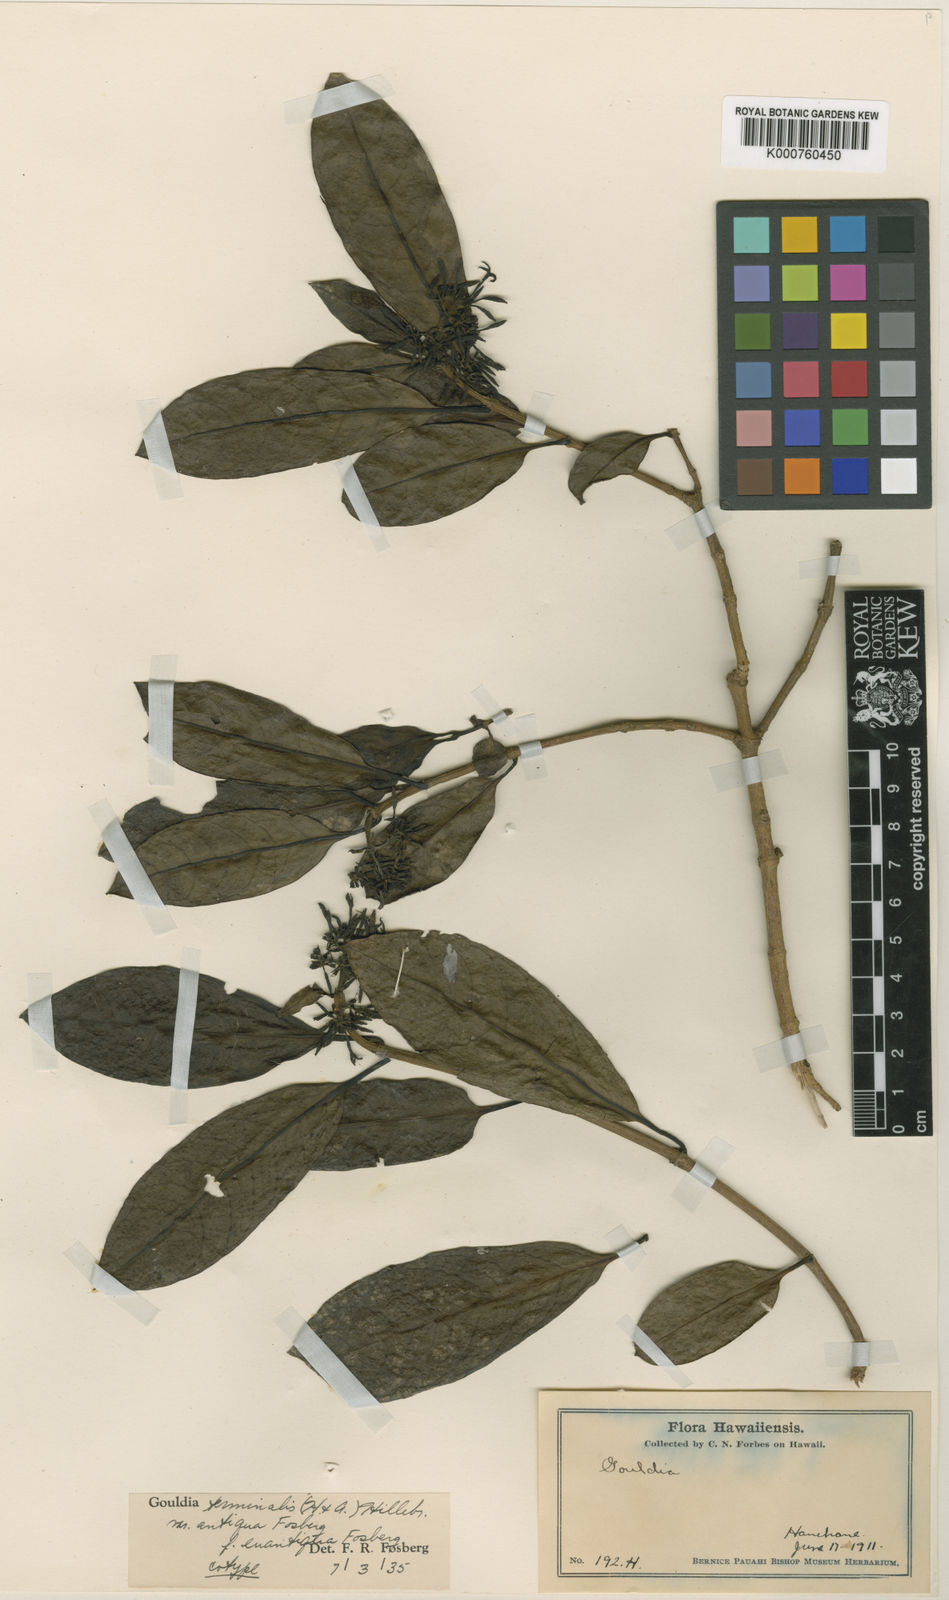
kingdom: Plantae
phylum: Tracheophyta
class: Magnoliopsida
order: Gentianales
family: Rubiaceae
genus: Kadua
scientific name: Kadua affinis
